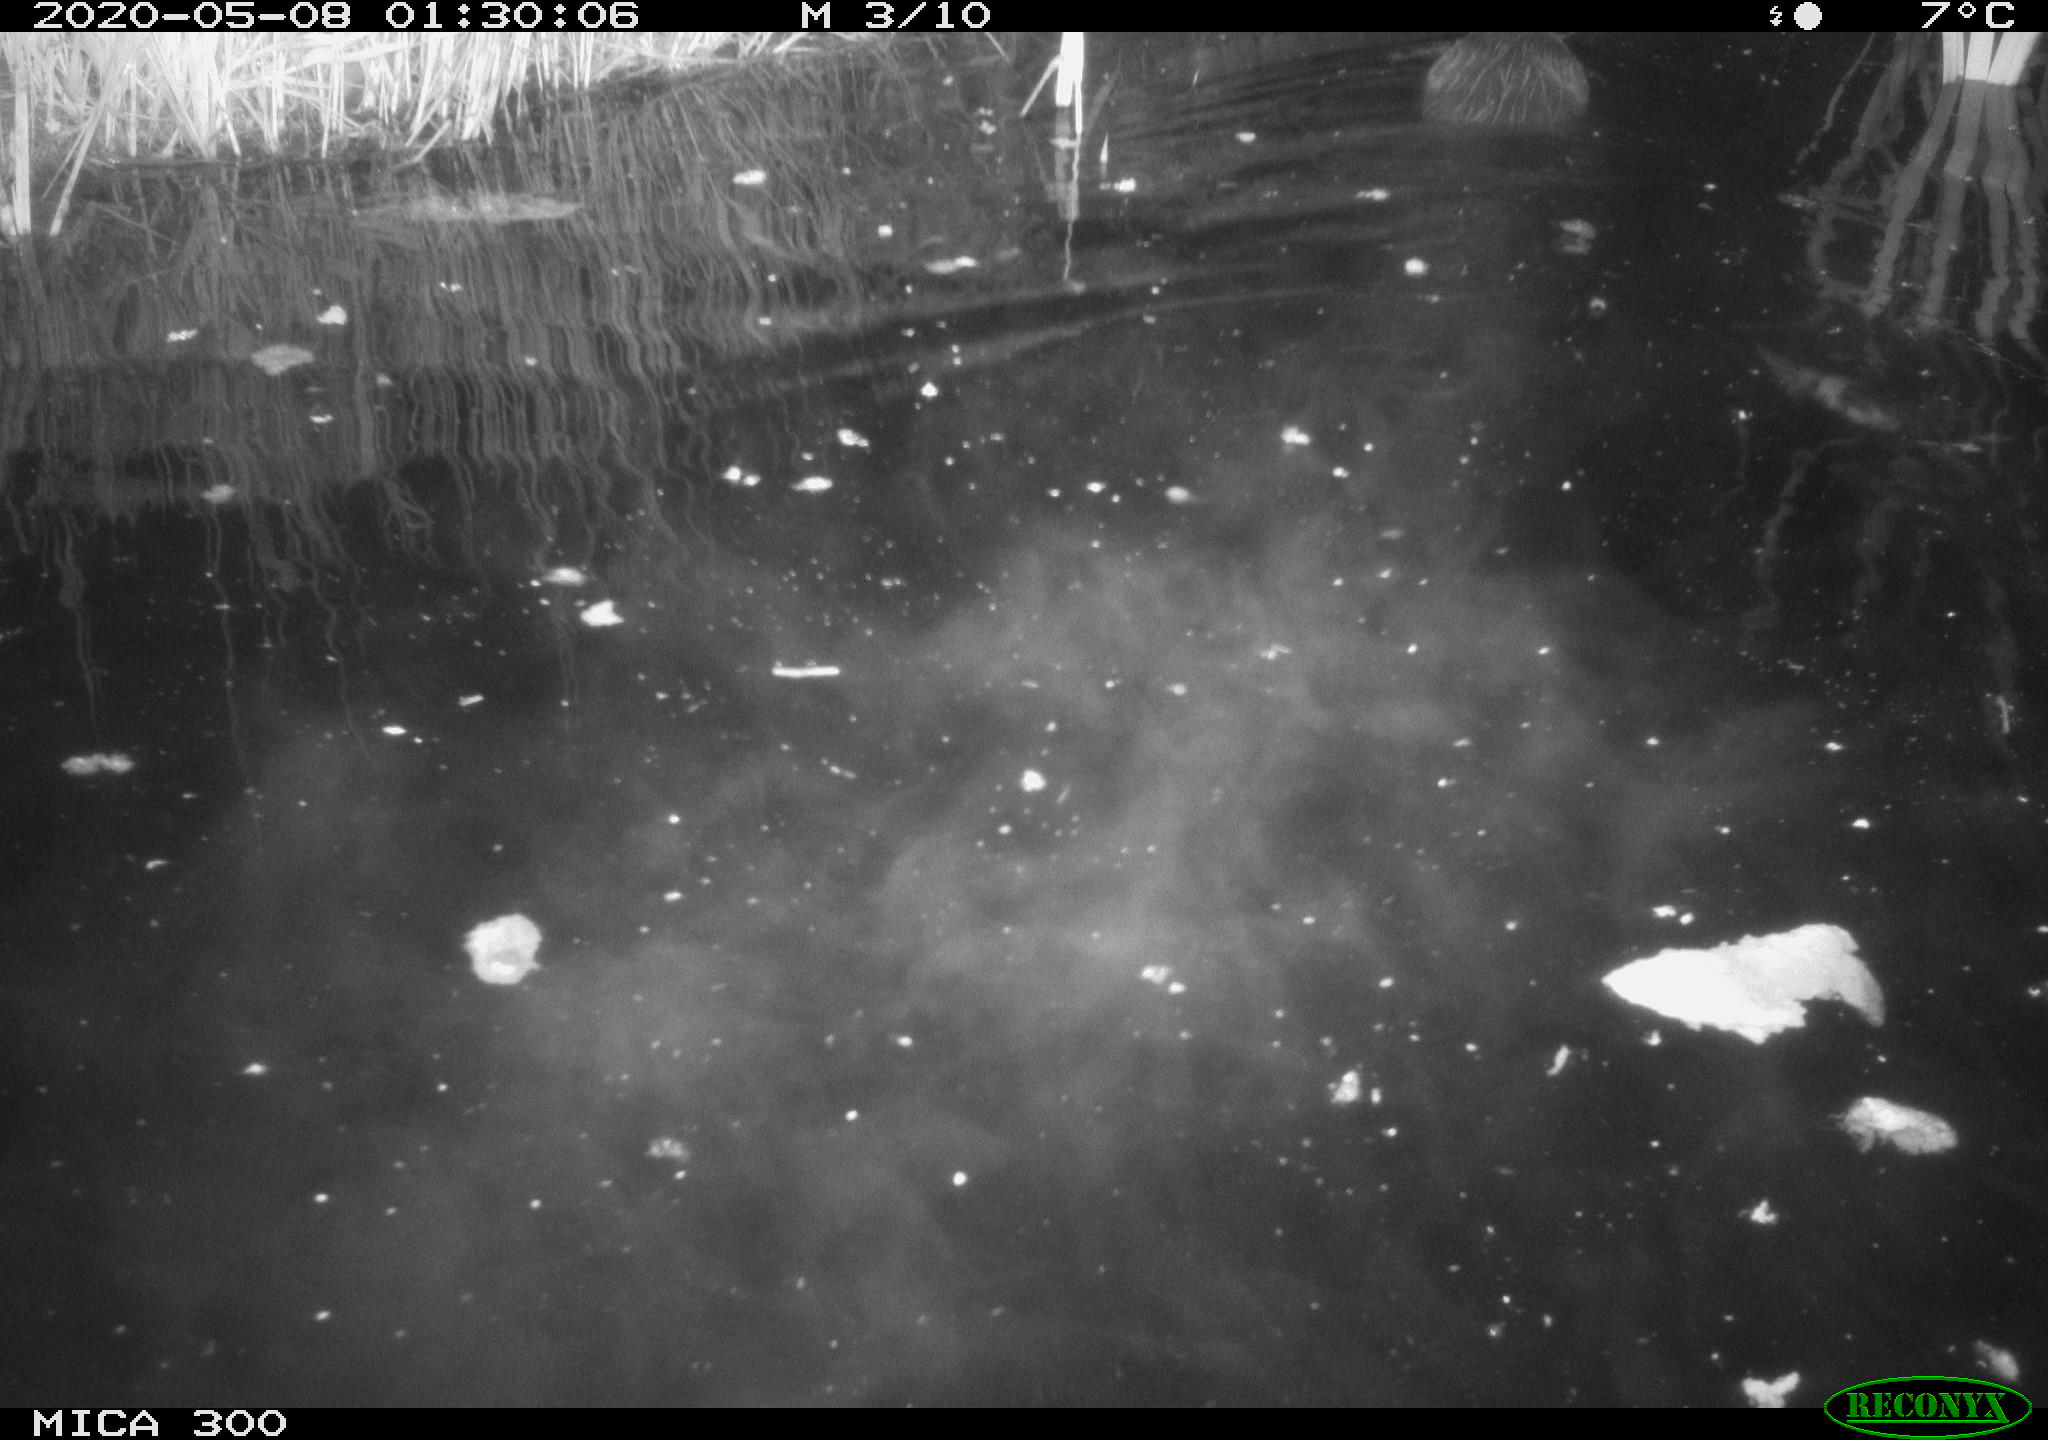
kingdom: Animalia
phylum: Chordata
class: Mammalia
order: Rodentia
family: Castoridae
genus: Castor
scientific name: Castor fiber
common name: Eurasian beaver
